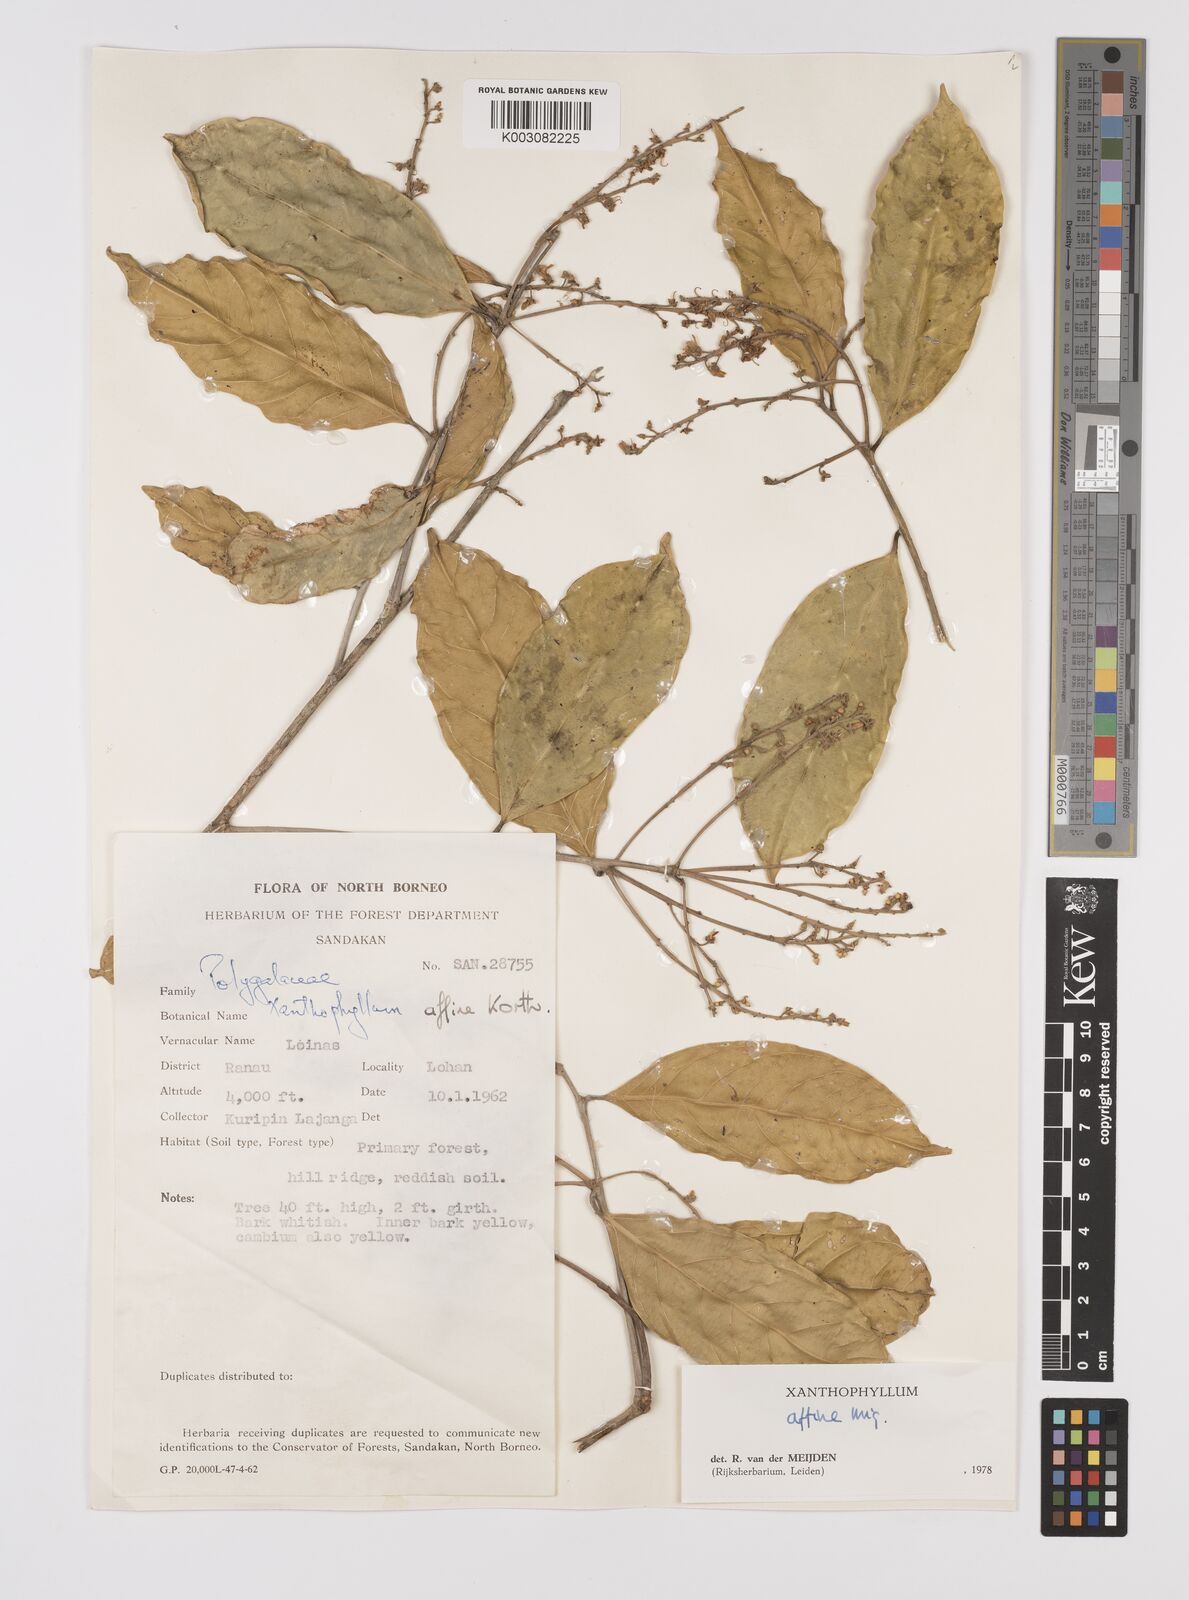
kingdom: Plantae
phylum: Tracheophyta
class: Magnoliopsida
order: Fabales
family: Polygalaceae
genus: Xanthophyllum
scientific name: Xanthophyllum flavescens
